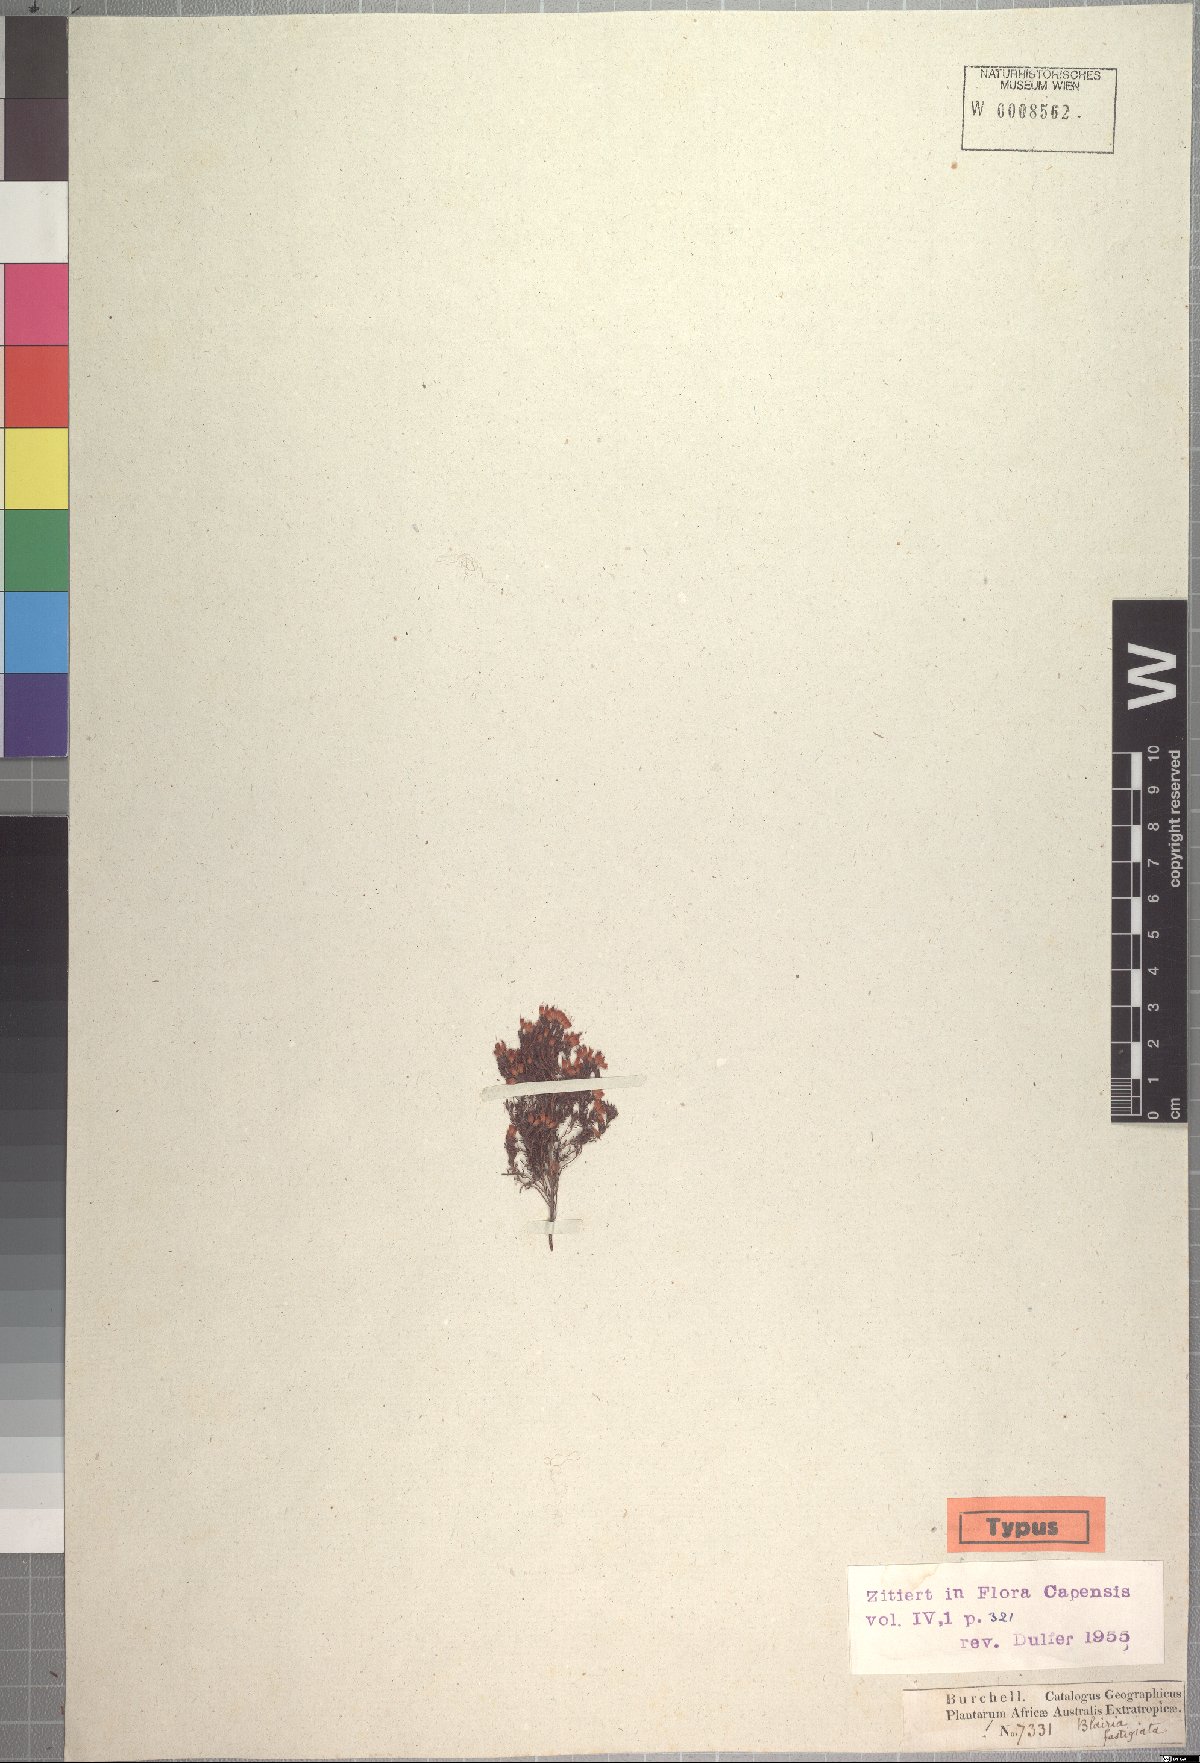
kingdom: Plantae
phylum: Tracheophyta
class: Magnoliopsida
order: Ericales
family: Ericaceae
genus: Erica
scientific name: Erica longimontana
